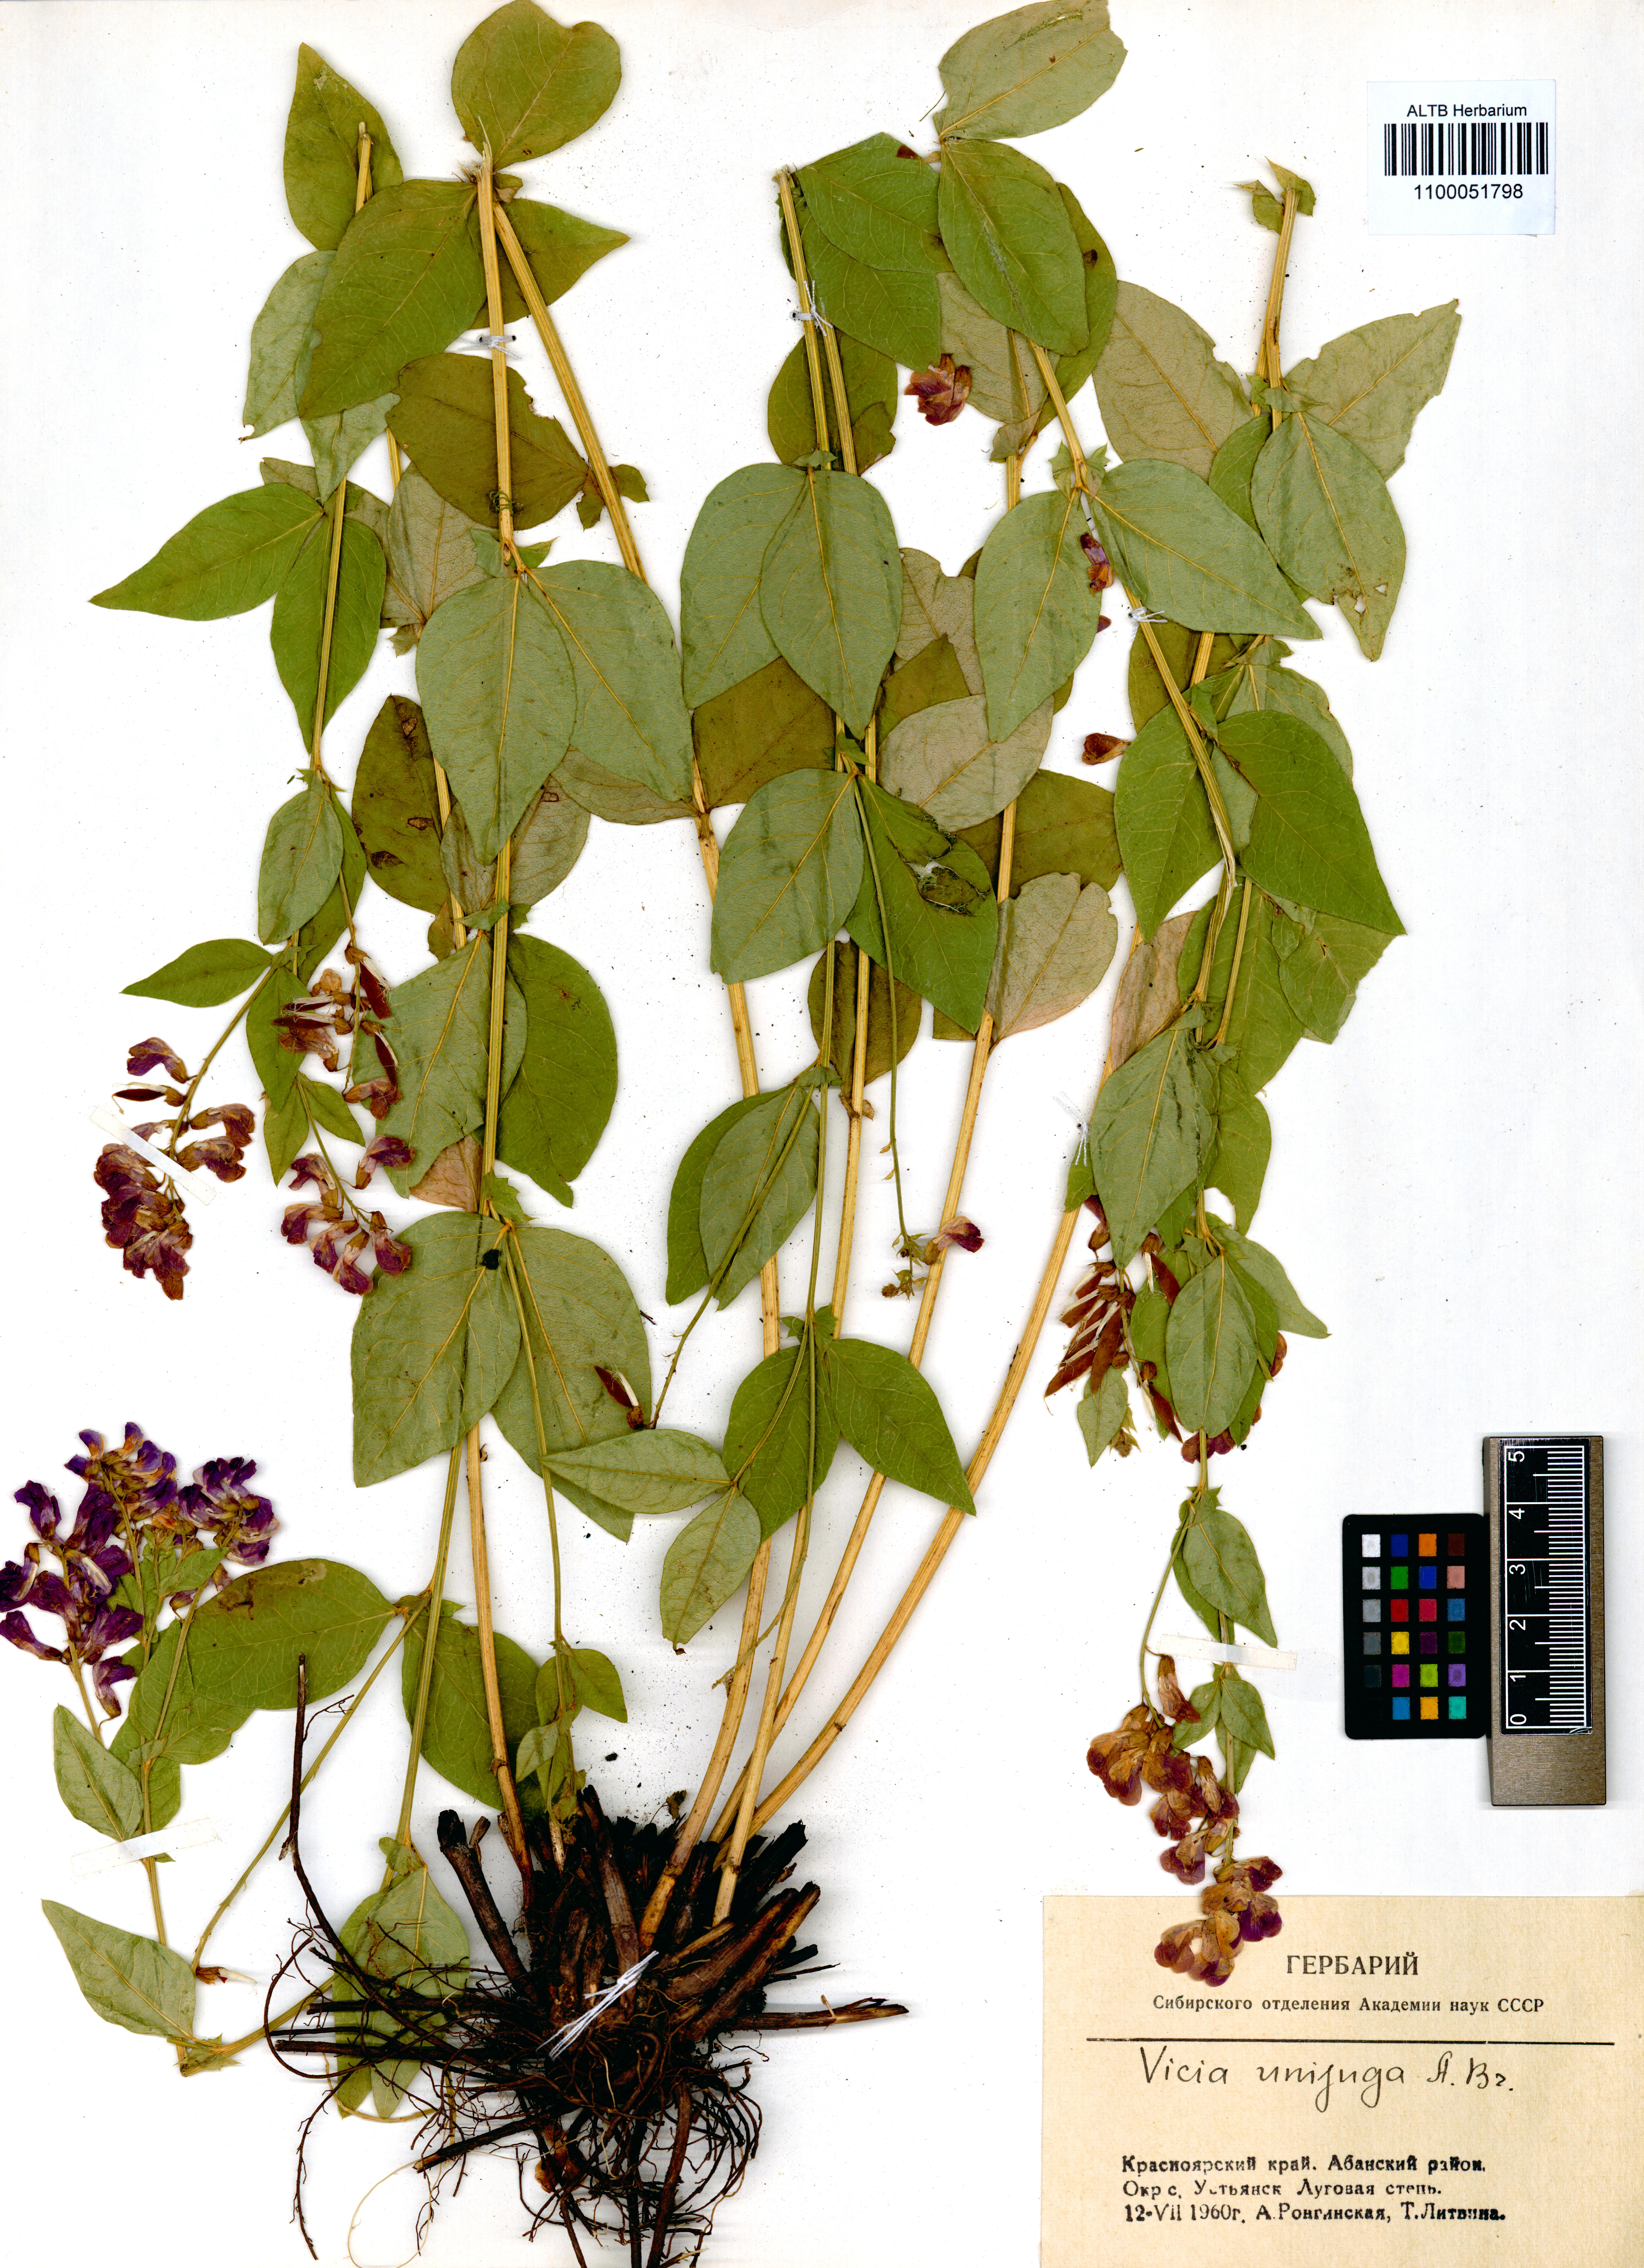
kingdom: Plantae
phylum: Tracheophyta
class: Magnoliopsida
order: Fabales
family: Fabaceae
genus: Vicia
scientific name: Vicia unijuga
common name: Two-leaf vetch
